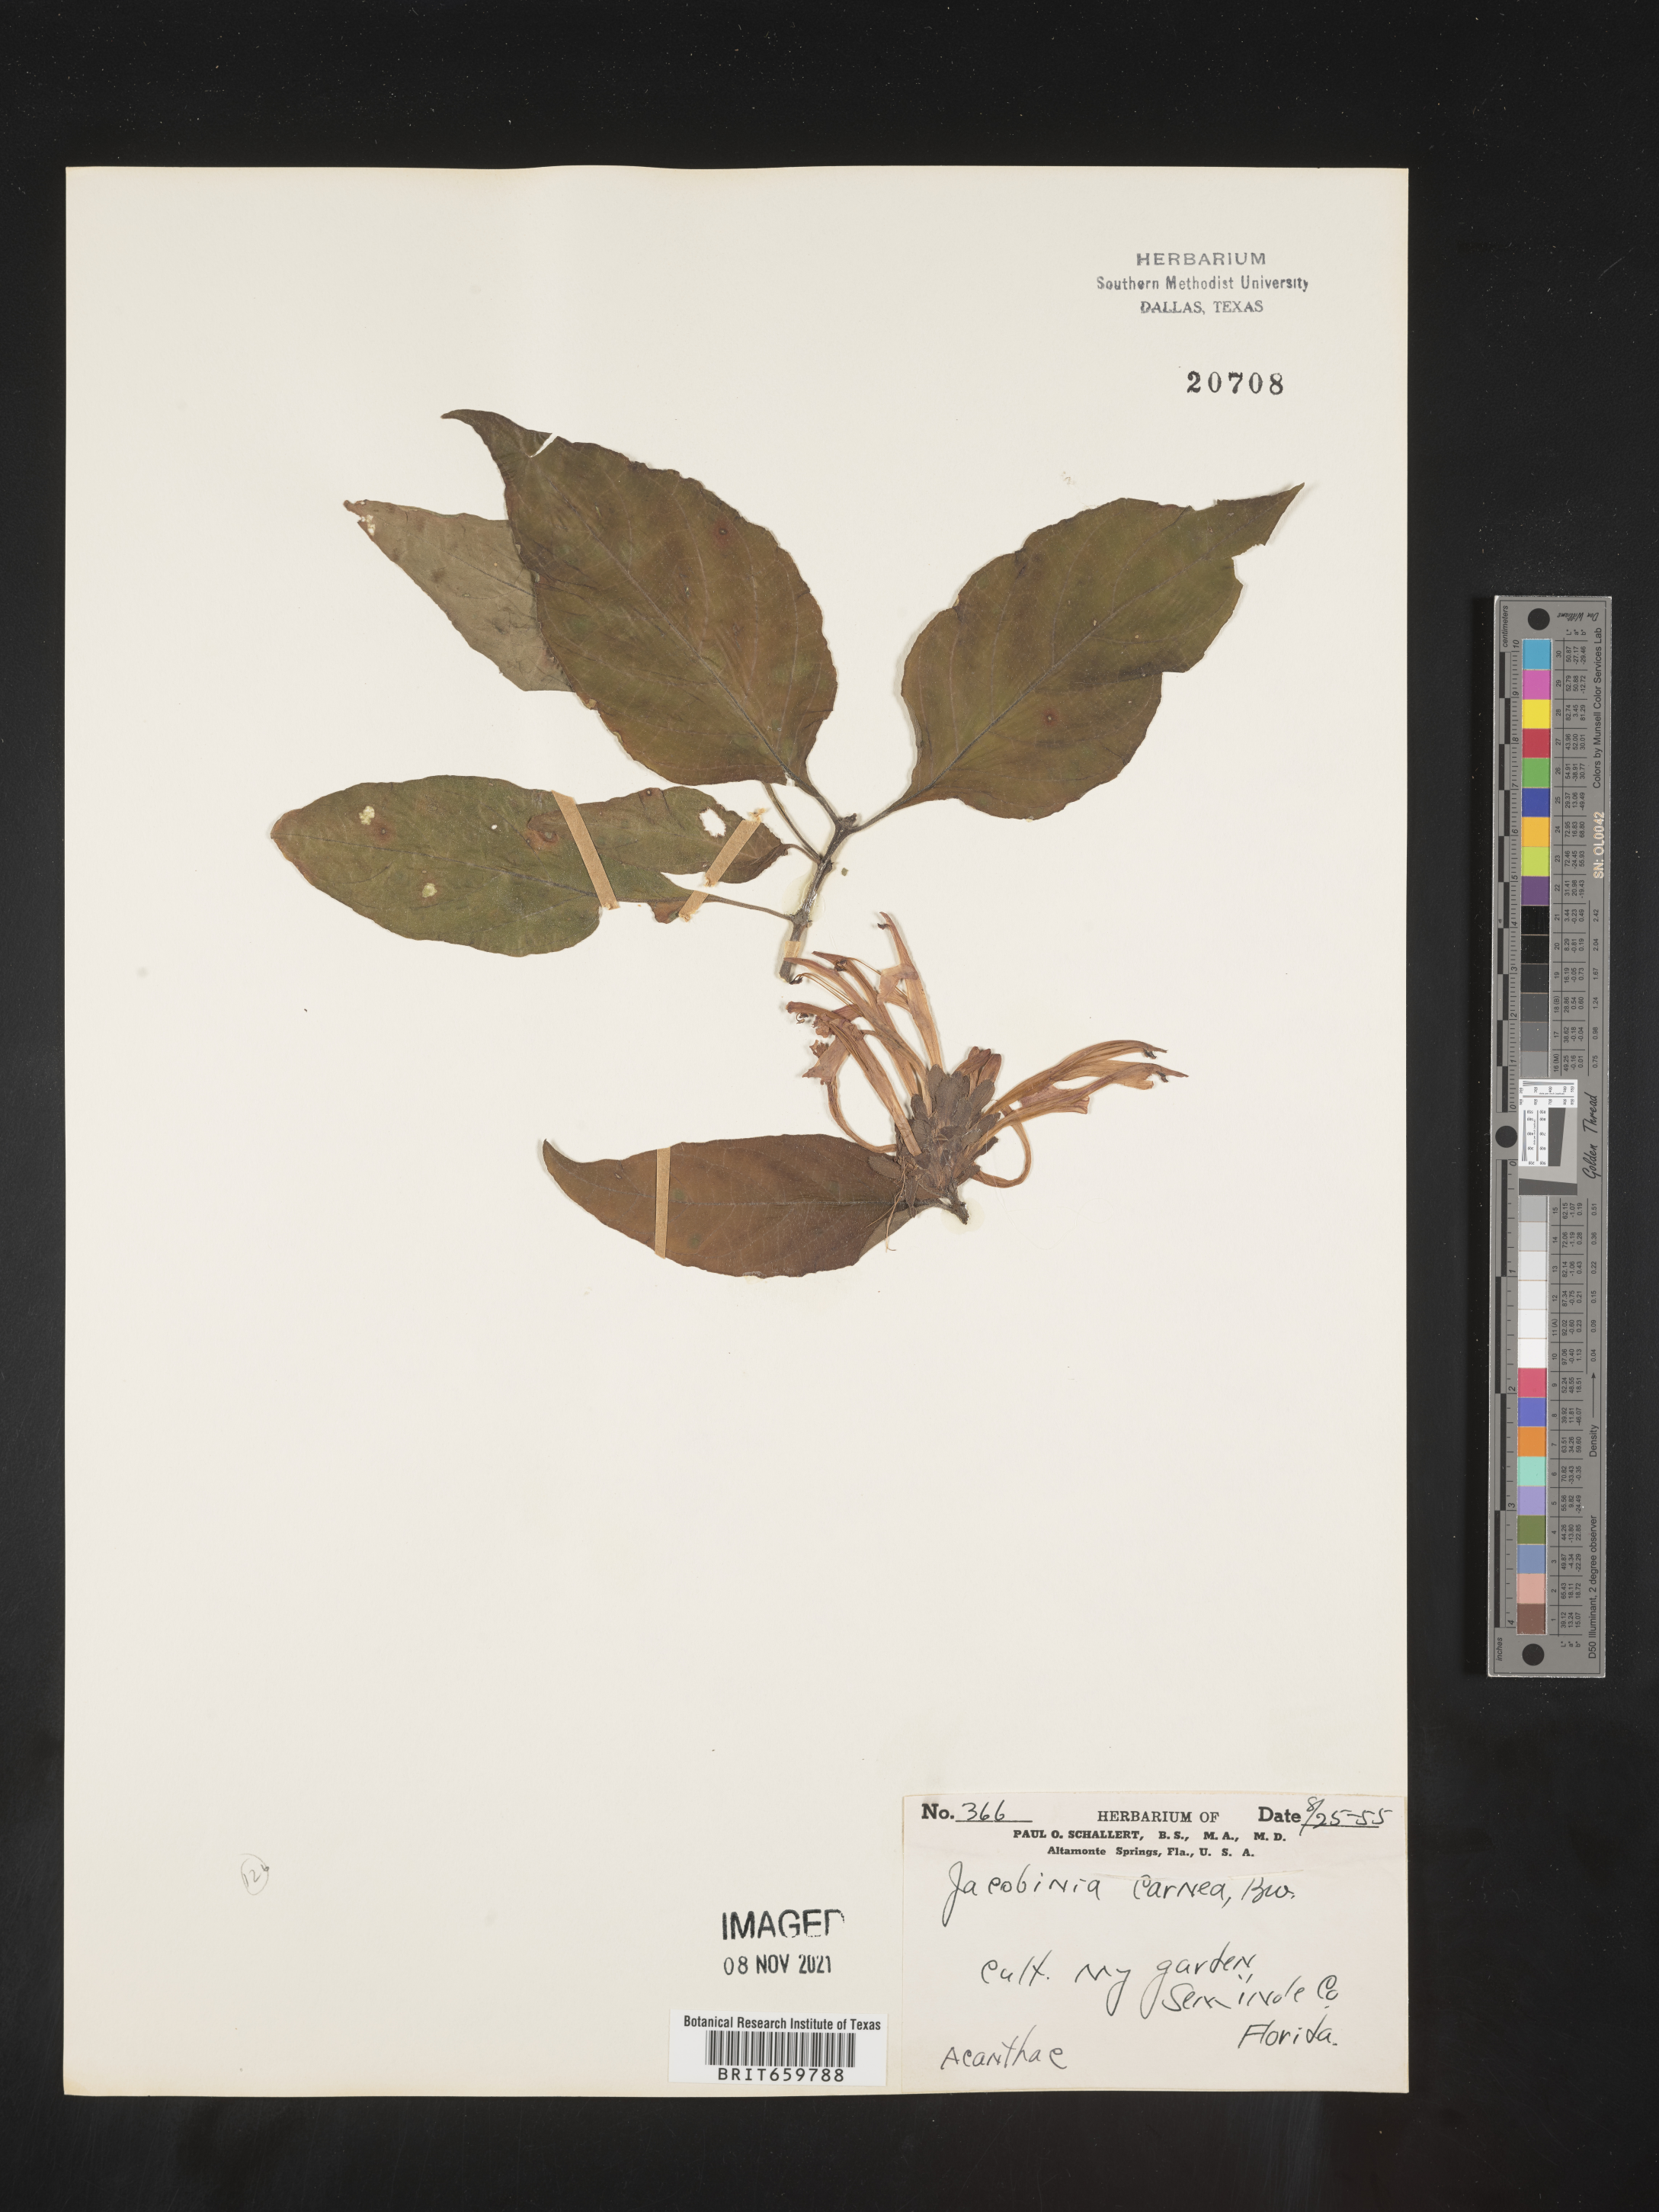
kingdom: Plantae
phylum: Tracheophyta
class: Magnoliopsida
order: Lamiales
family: Acanthaceae
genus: Justicia
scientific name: Justicia
